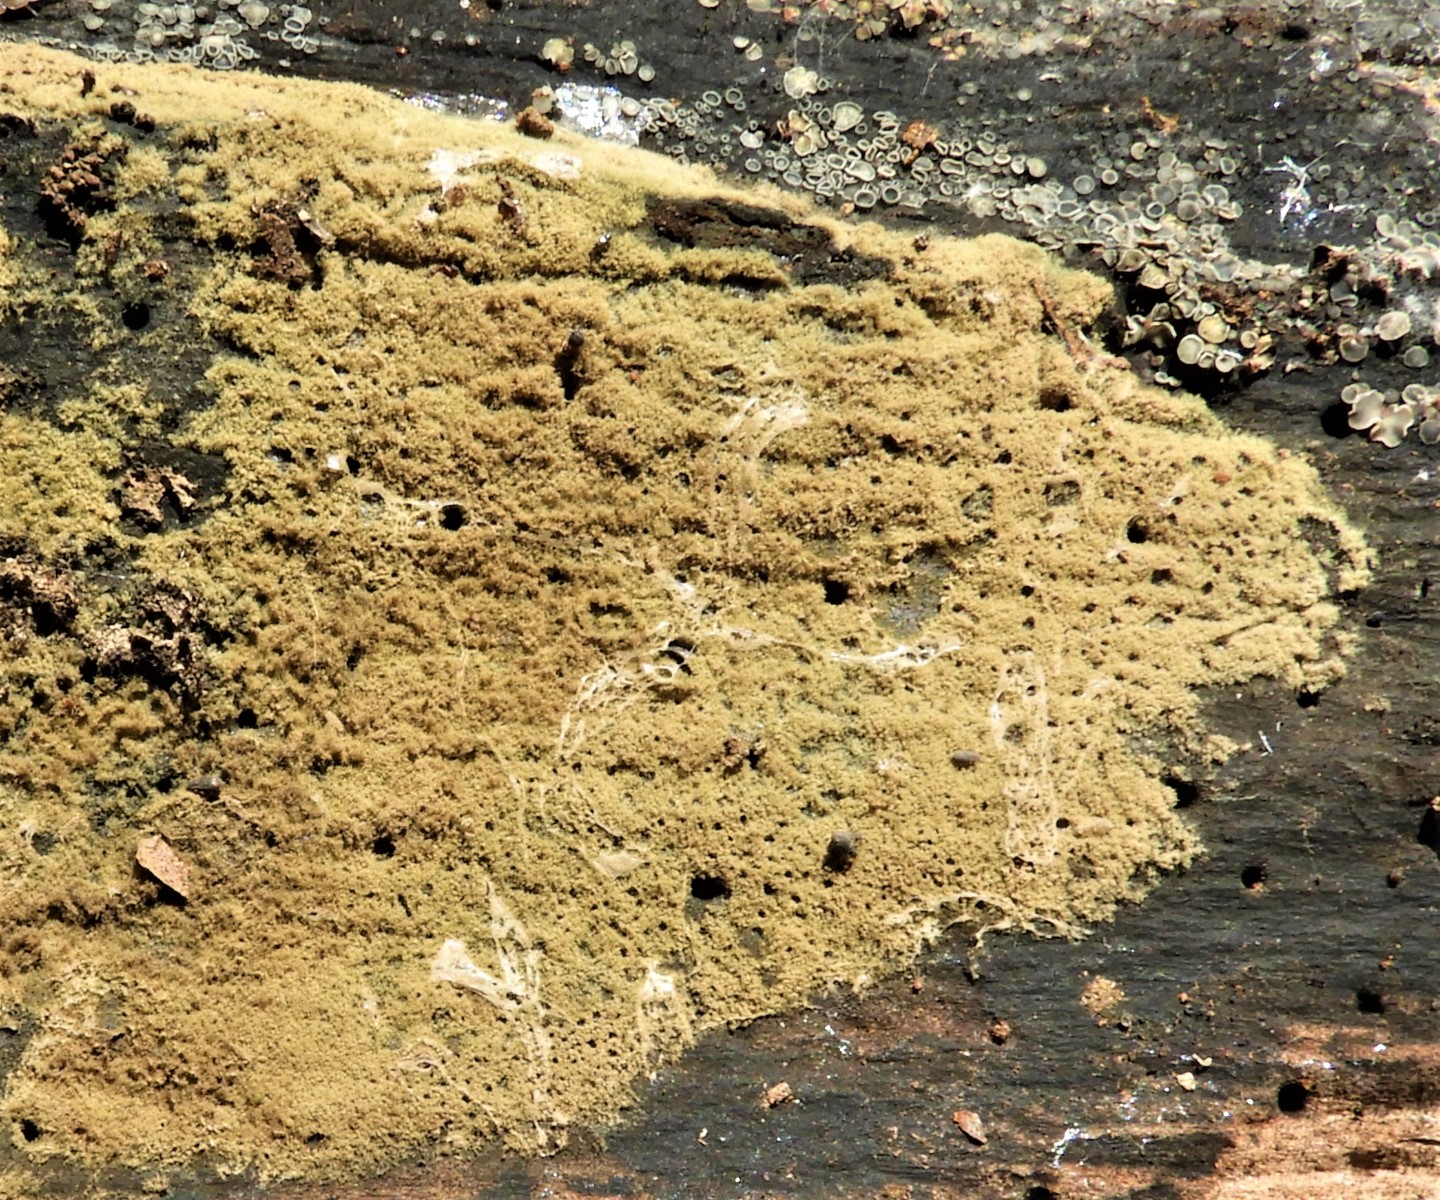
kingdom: Fungi
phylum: Ascomycota
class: Sordariomycetes
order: Xylariales
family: Hypoxylaceae
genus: Hypoxylon
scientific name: Hypoxylon
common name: kulbær
